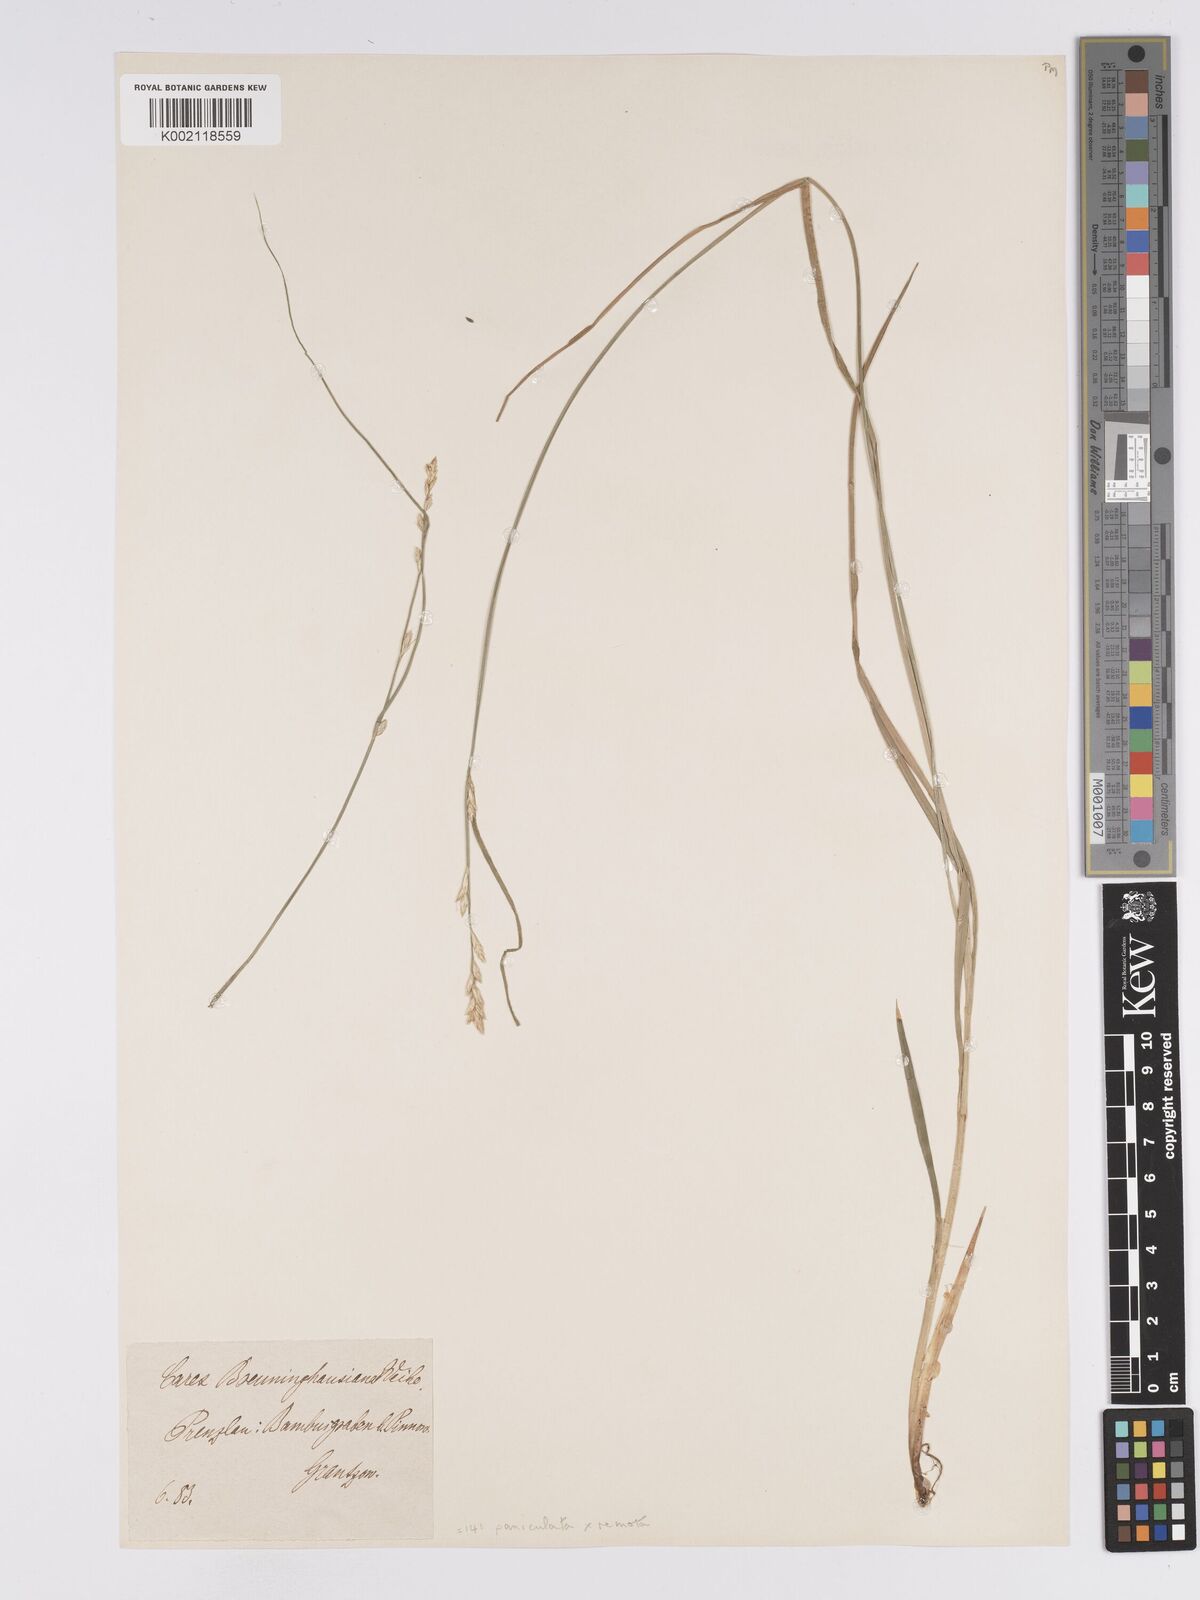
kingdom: Plantae
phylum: Tracheophyta
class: Liliopsida
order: Poales
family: Cyperaceae
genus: Carex
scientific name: Carex baldensis
